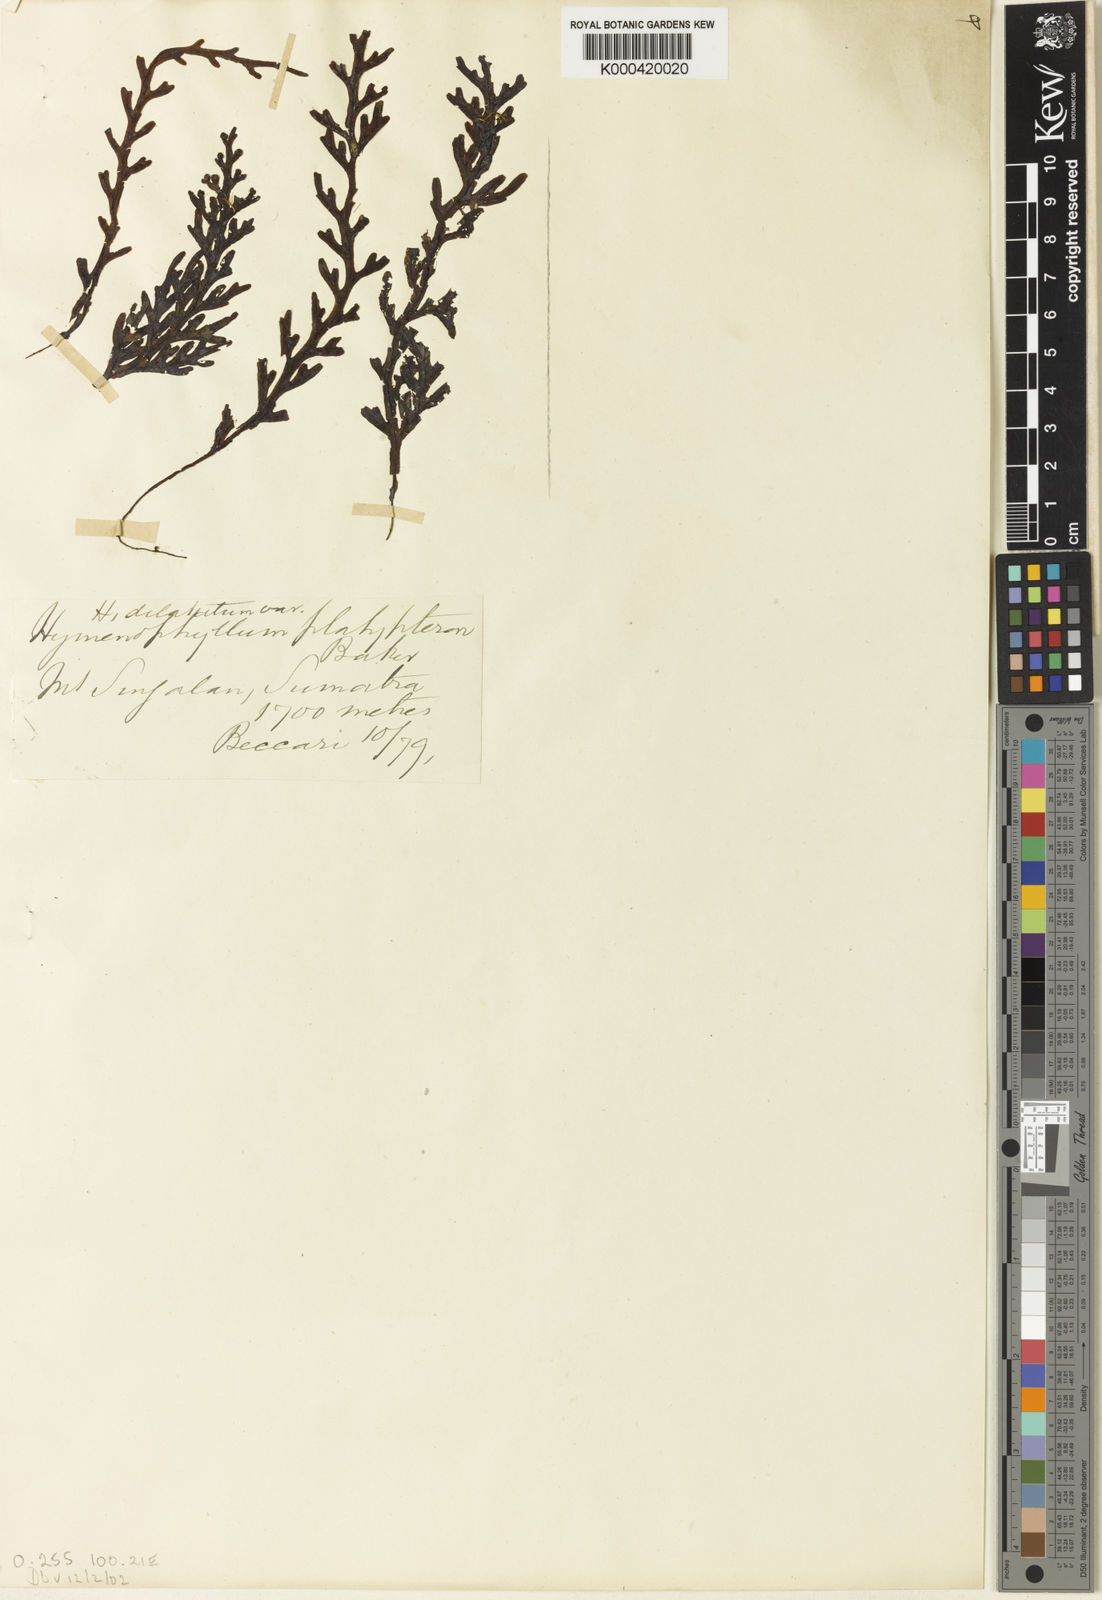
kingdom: Plantae
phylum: Tracheophyta
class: Polypodiopsida
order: Hymenophyllales
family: Hymenophyllaceae
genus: Hymenophyllum
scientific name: Hymenophyllum
